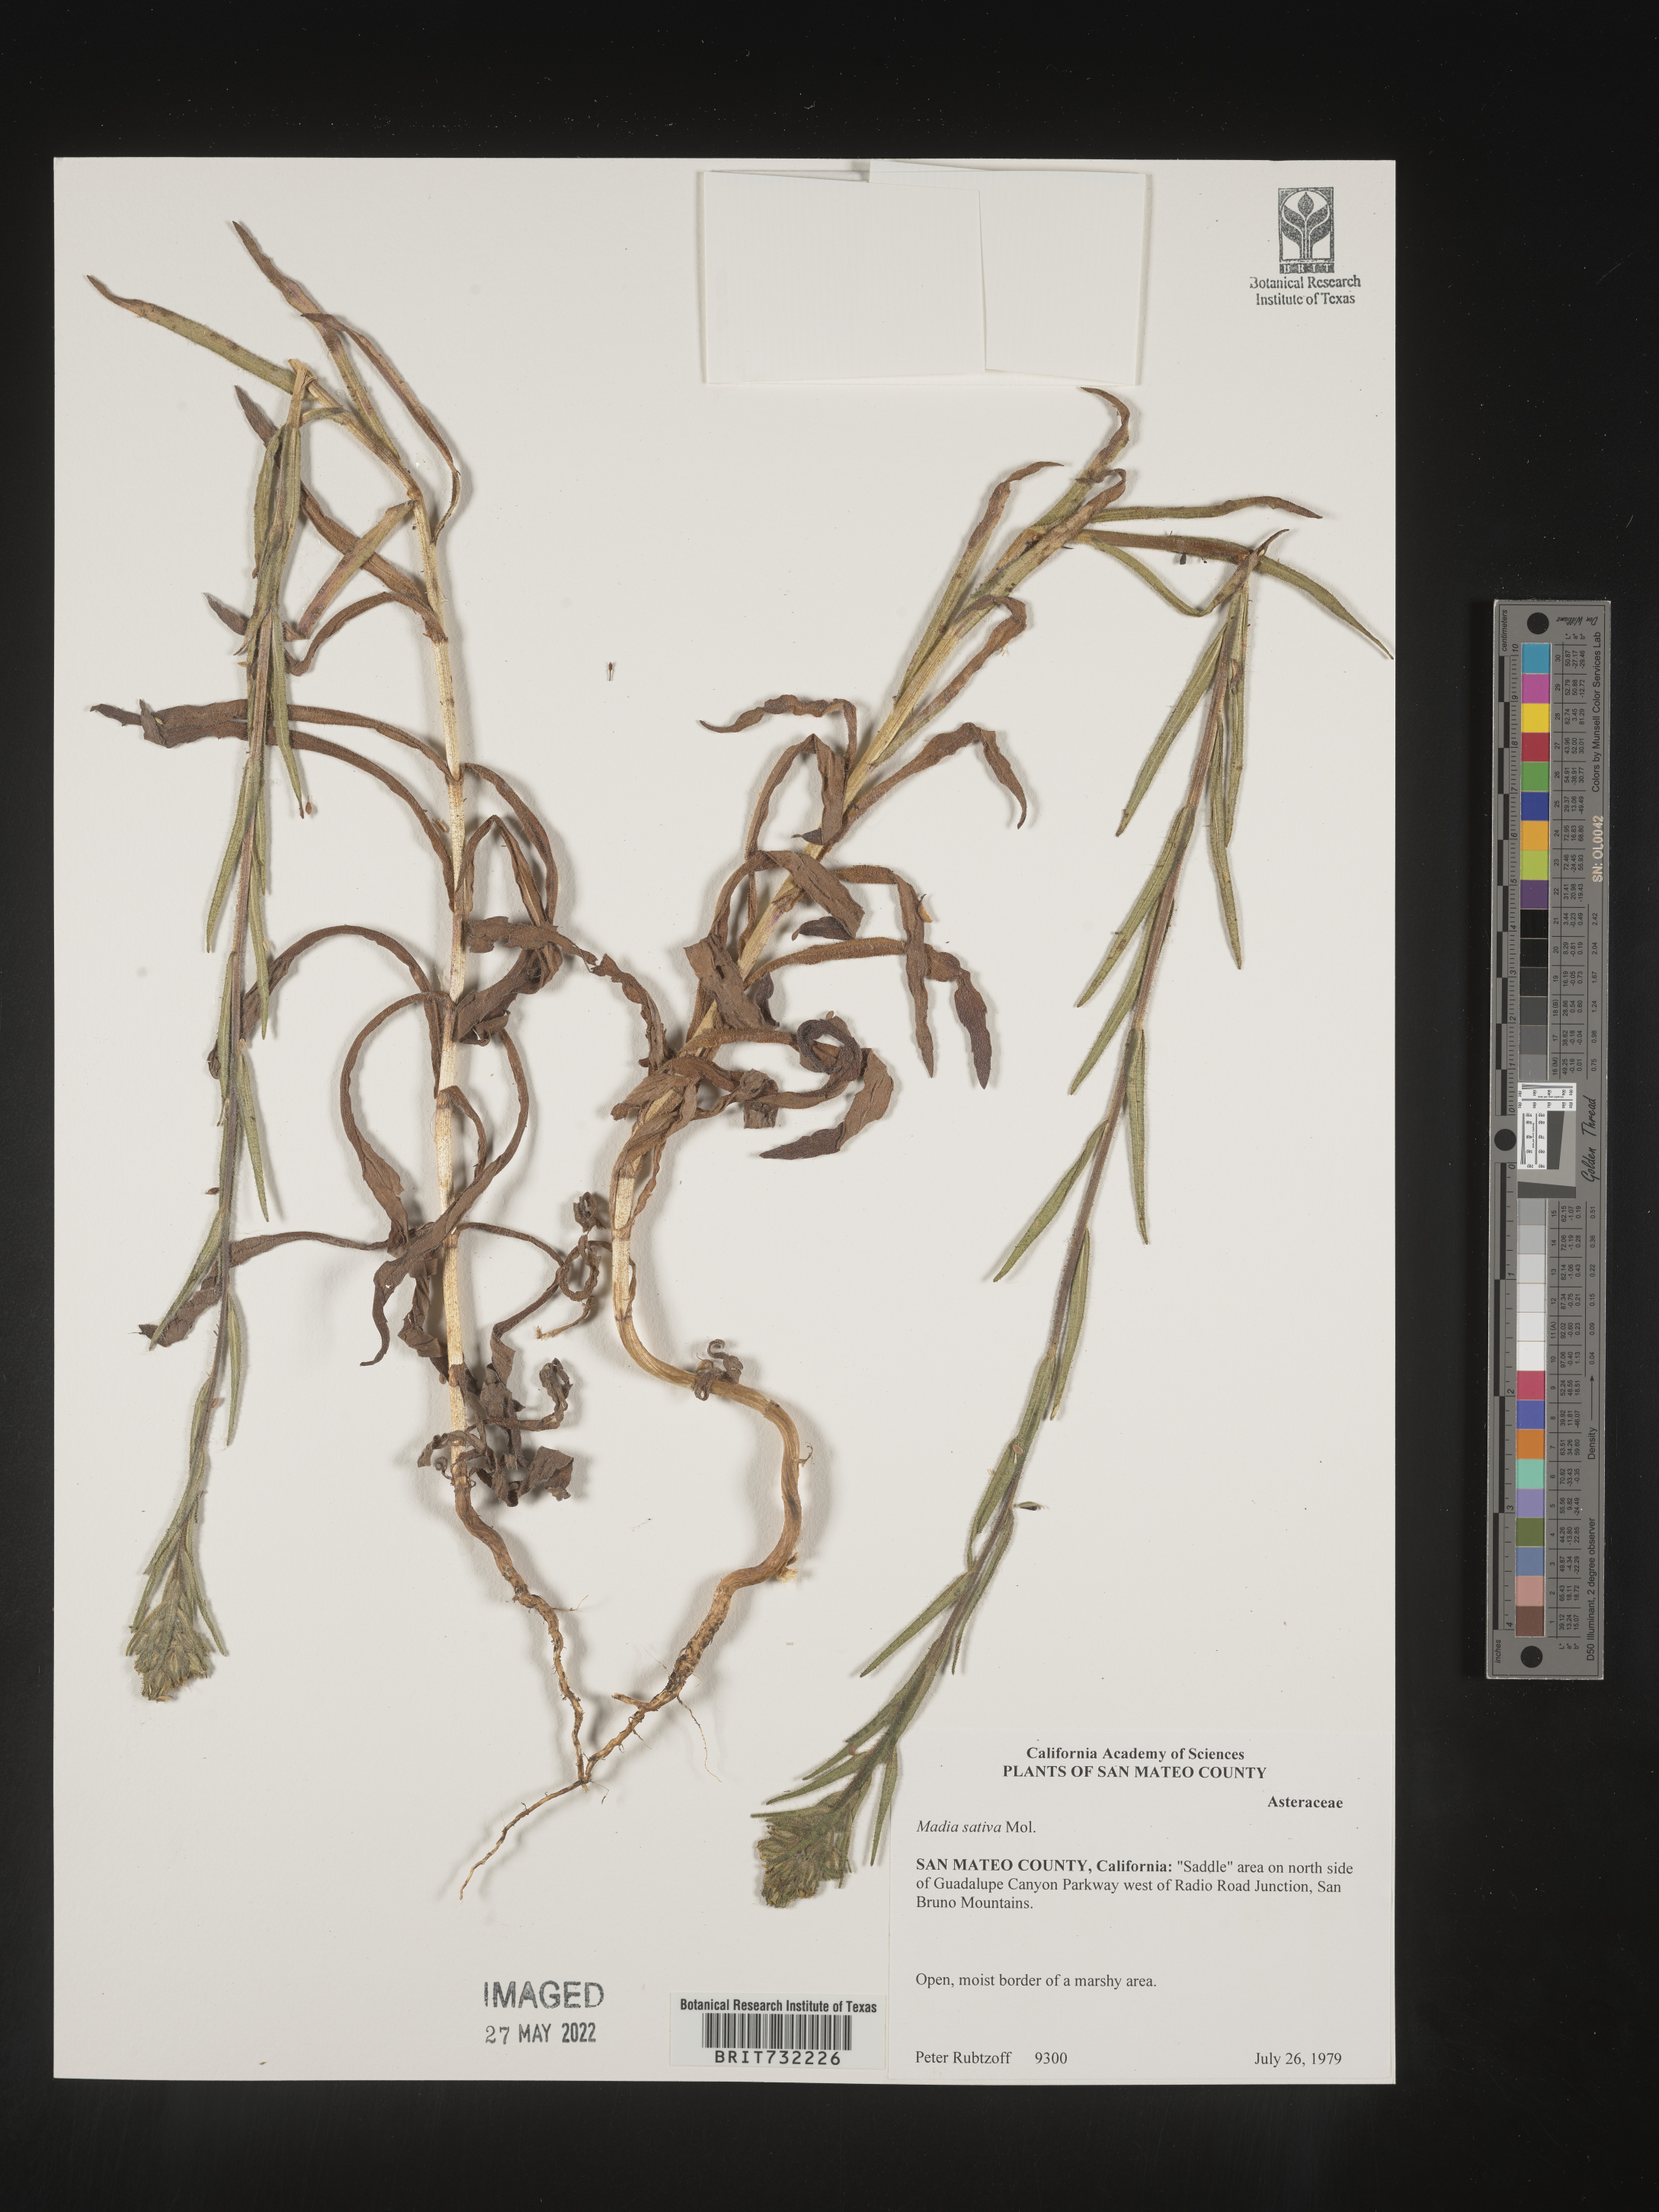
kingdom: Plantae
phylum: Tracheophyta
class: Magnoliopsida
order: Asterales
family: Asteraceae
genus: Madia
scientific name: Madia
